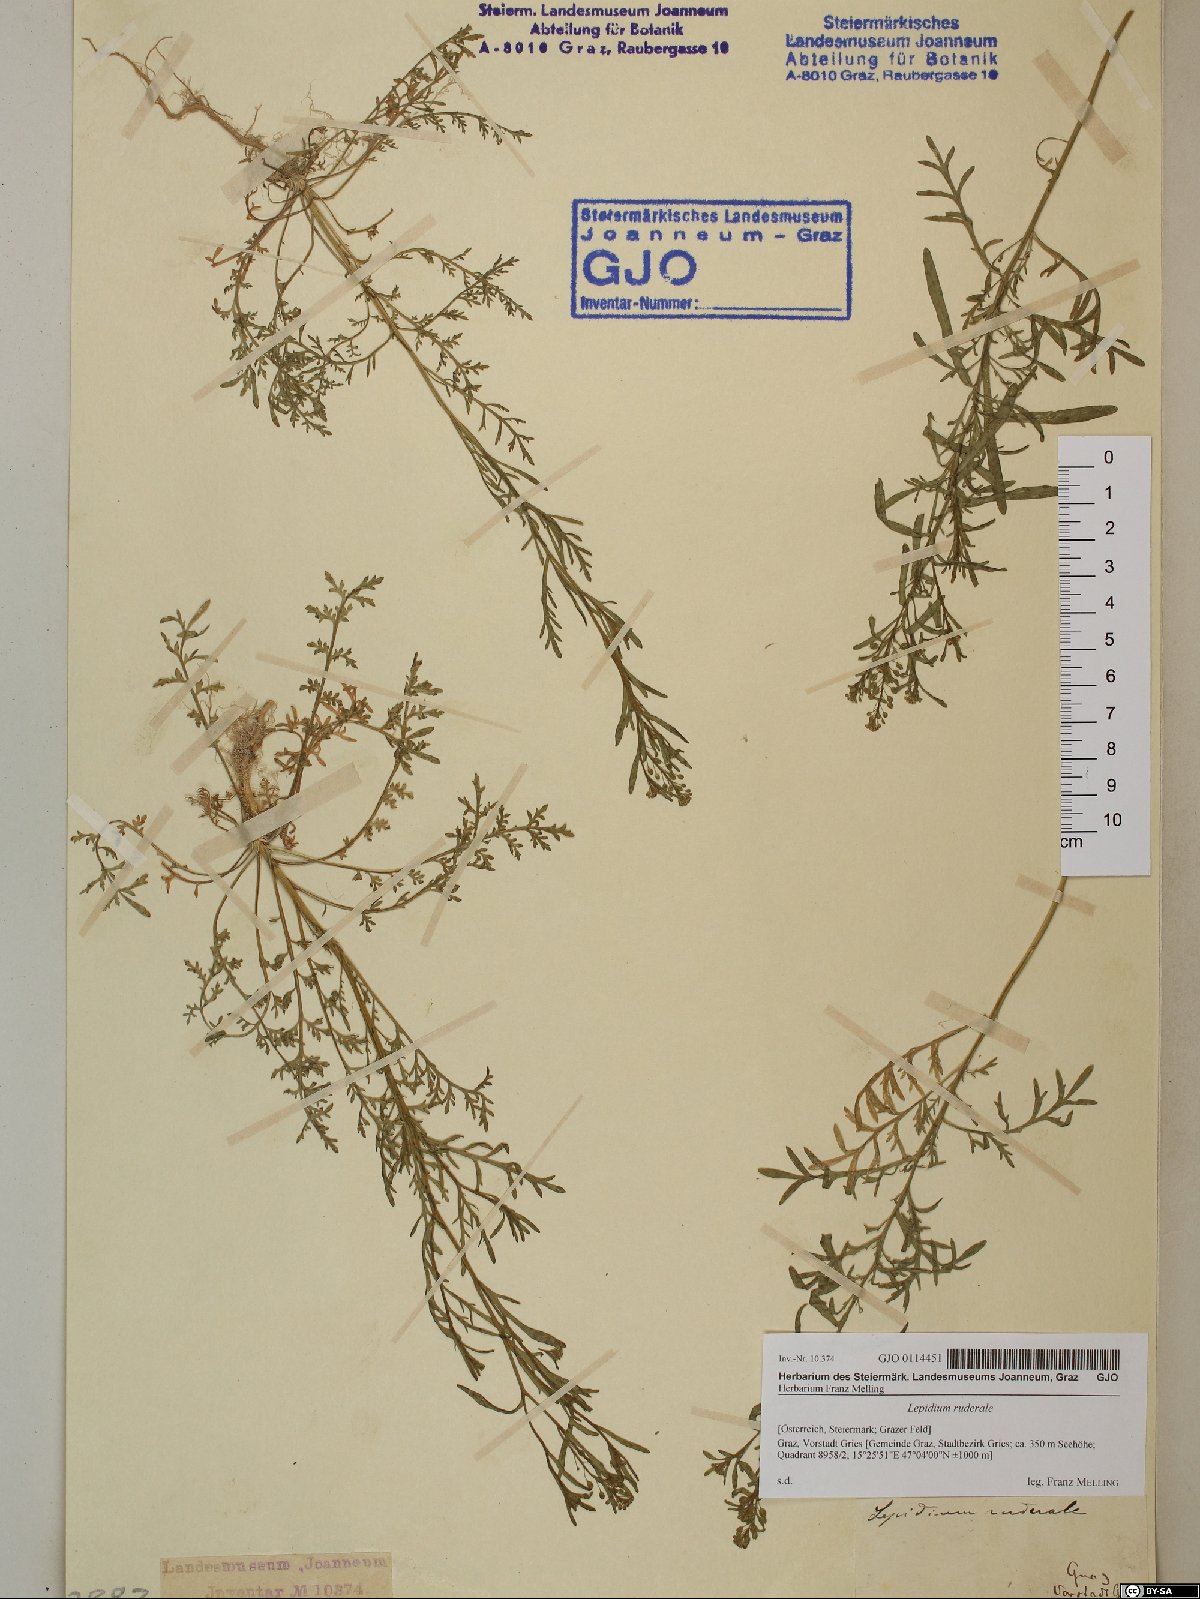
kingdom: Plantae
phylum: Tracheophyta
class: Magnoliopsida
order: Brassicales
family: Brassicaceae
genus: Lepidium
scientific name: Lepidium ruderale
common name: Narrow-leaved pepperwort
